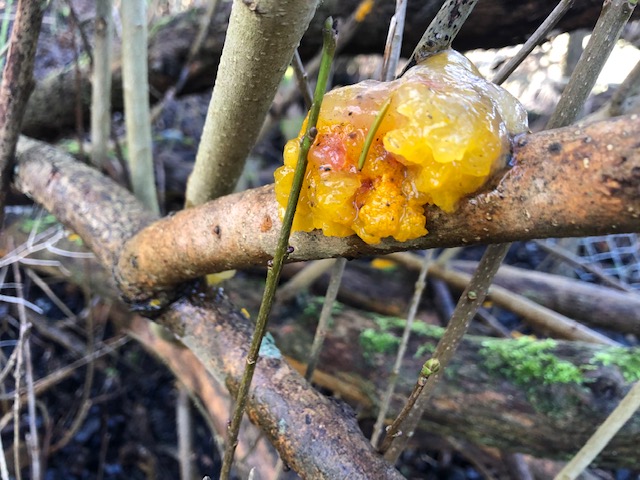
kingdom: Fungi
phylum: Basidiomycota
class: Tremellomycetes
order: Tremellales
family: Tremellaceae
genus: Tremella
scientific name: Tremella mesenterica
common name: gul bævresvamp
